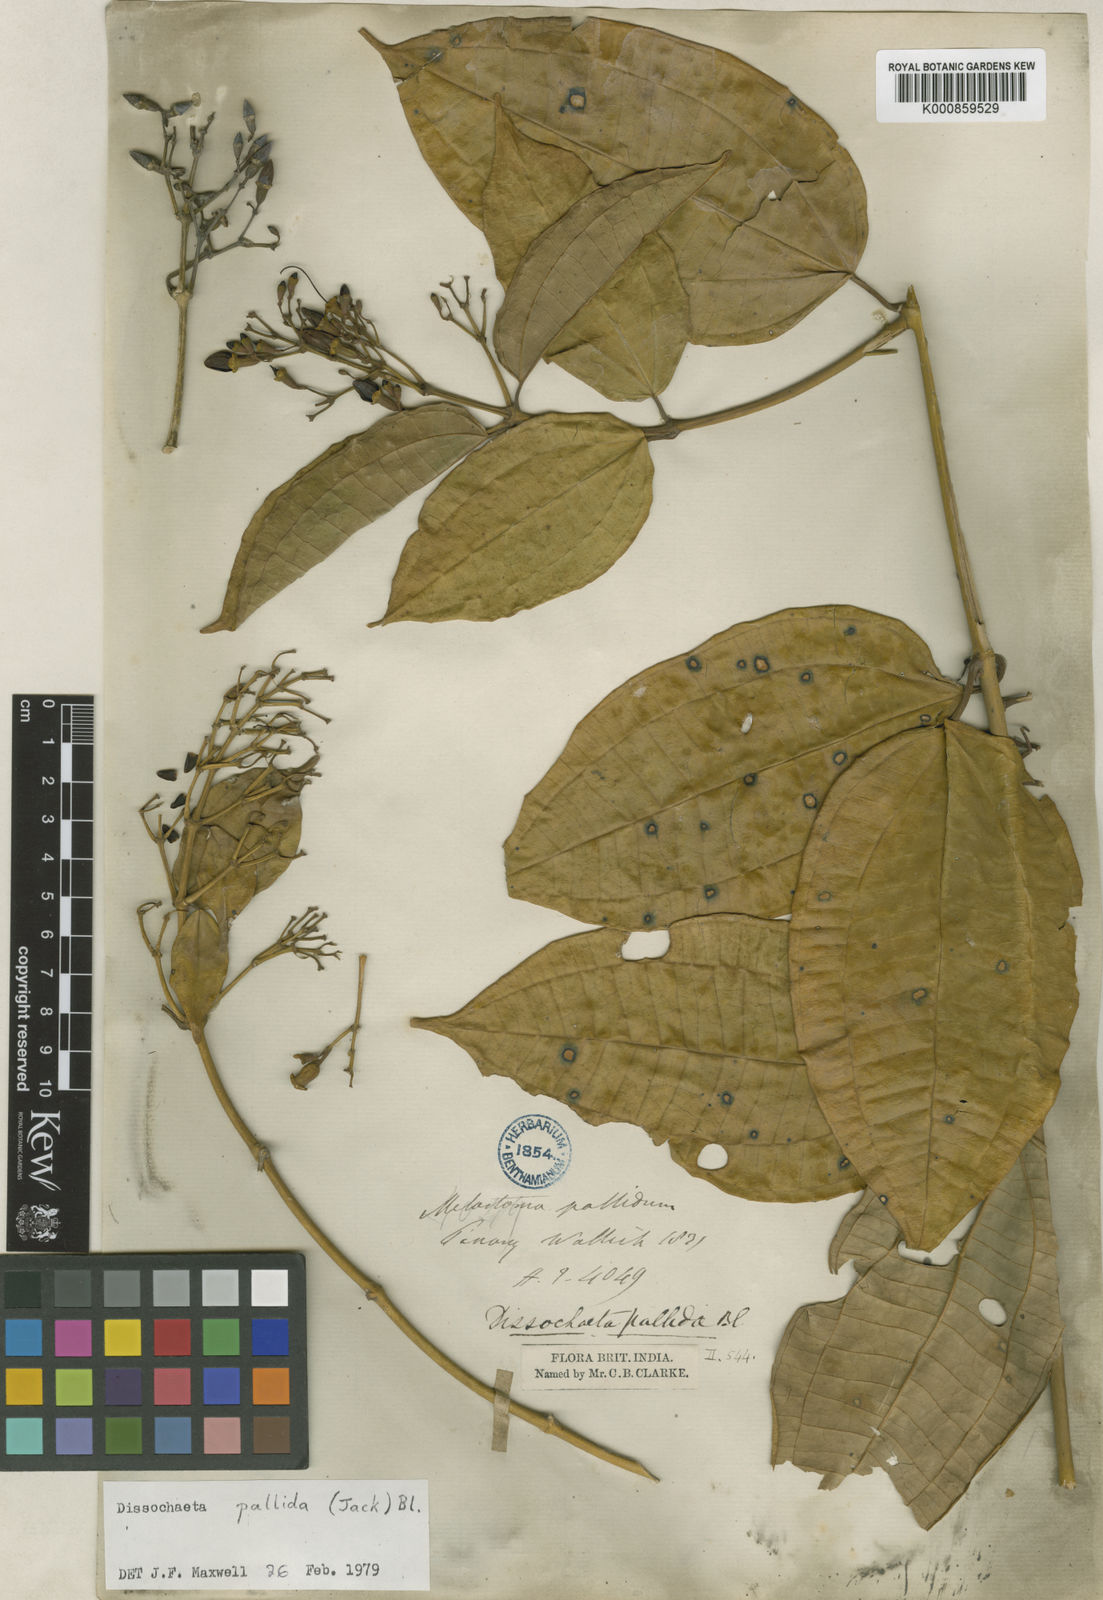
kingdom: Plantae
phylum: Tracheophyta
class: Magnoliopsida
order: Myrtales
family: Melastomataceae
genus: Dissochaeta
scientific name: Dissochaeta pallida
